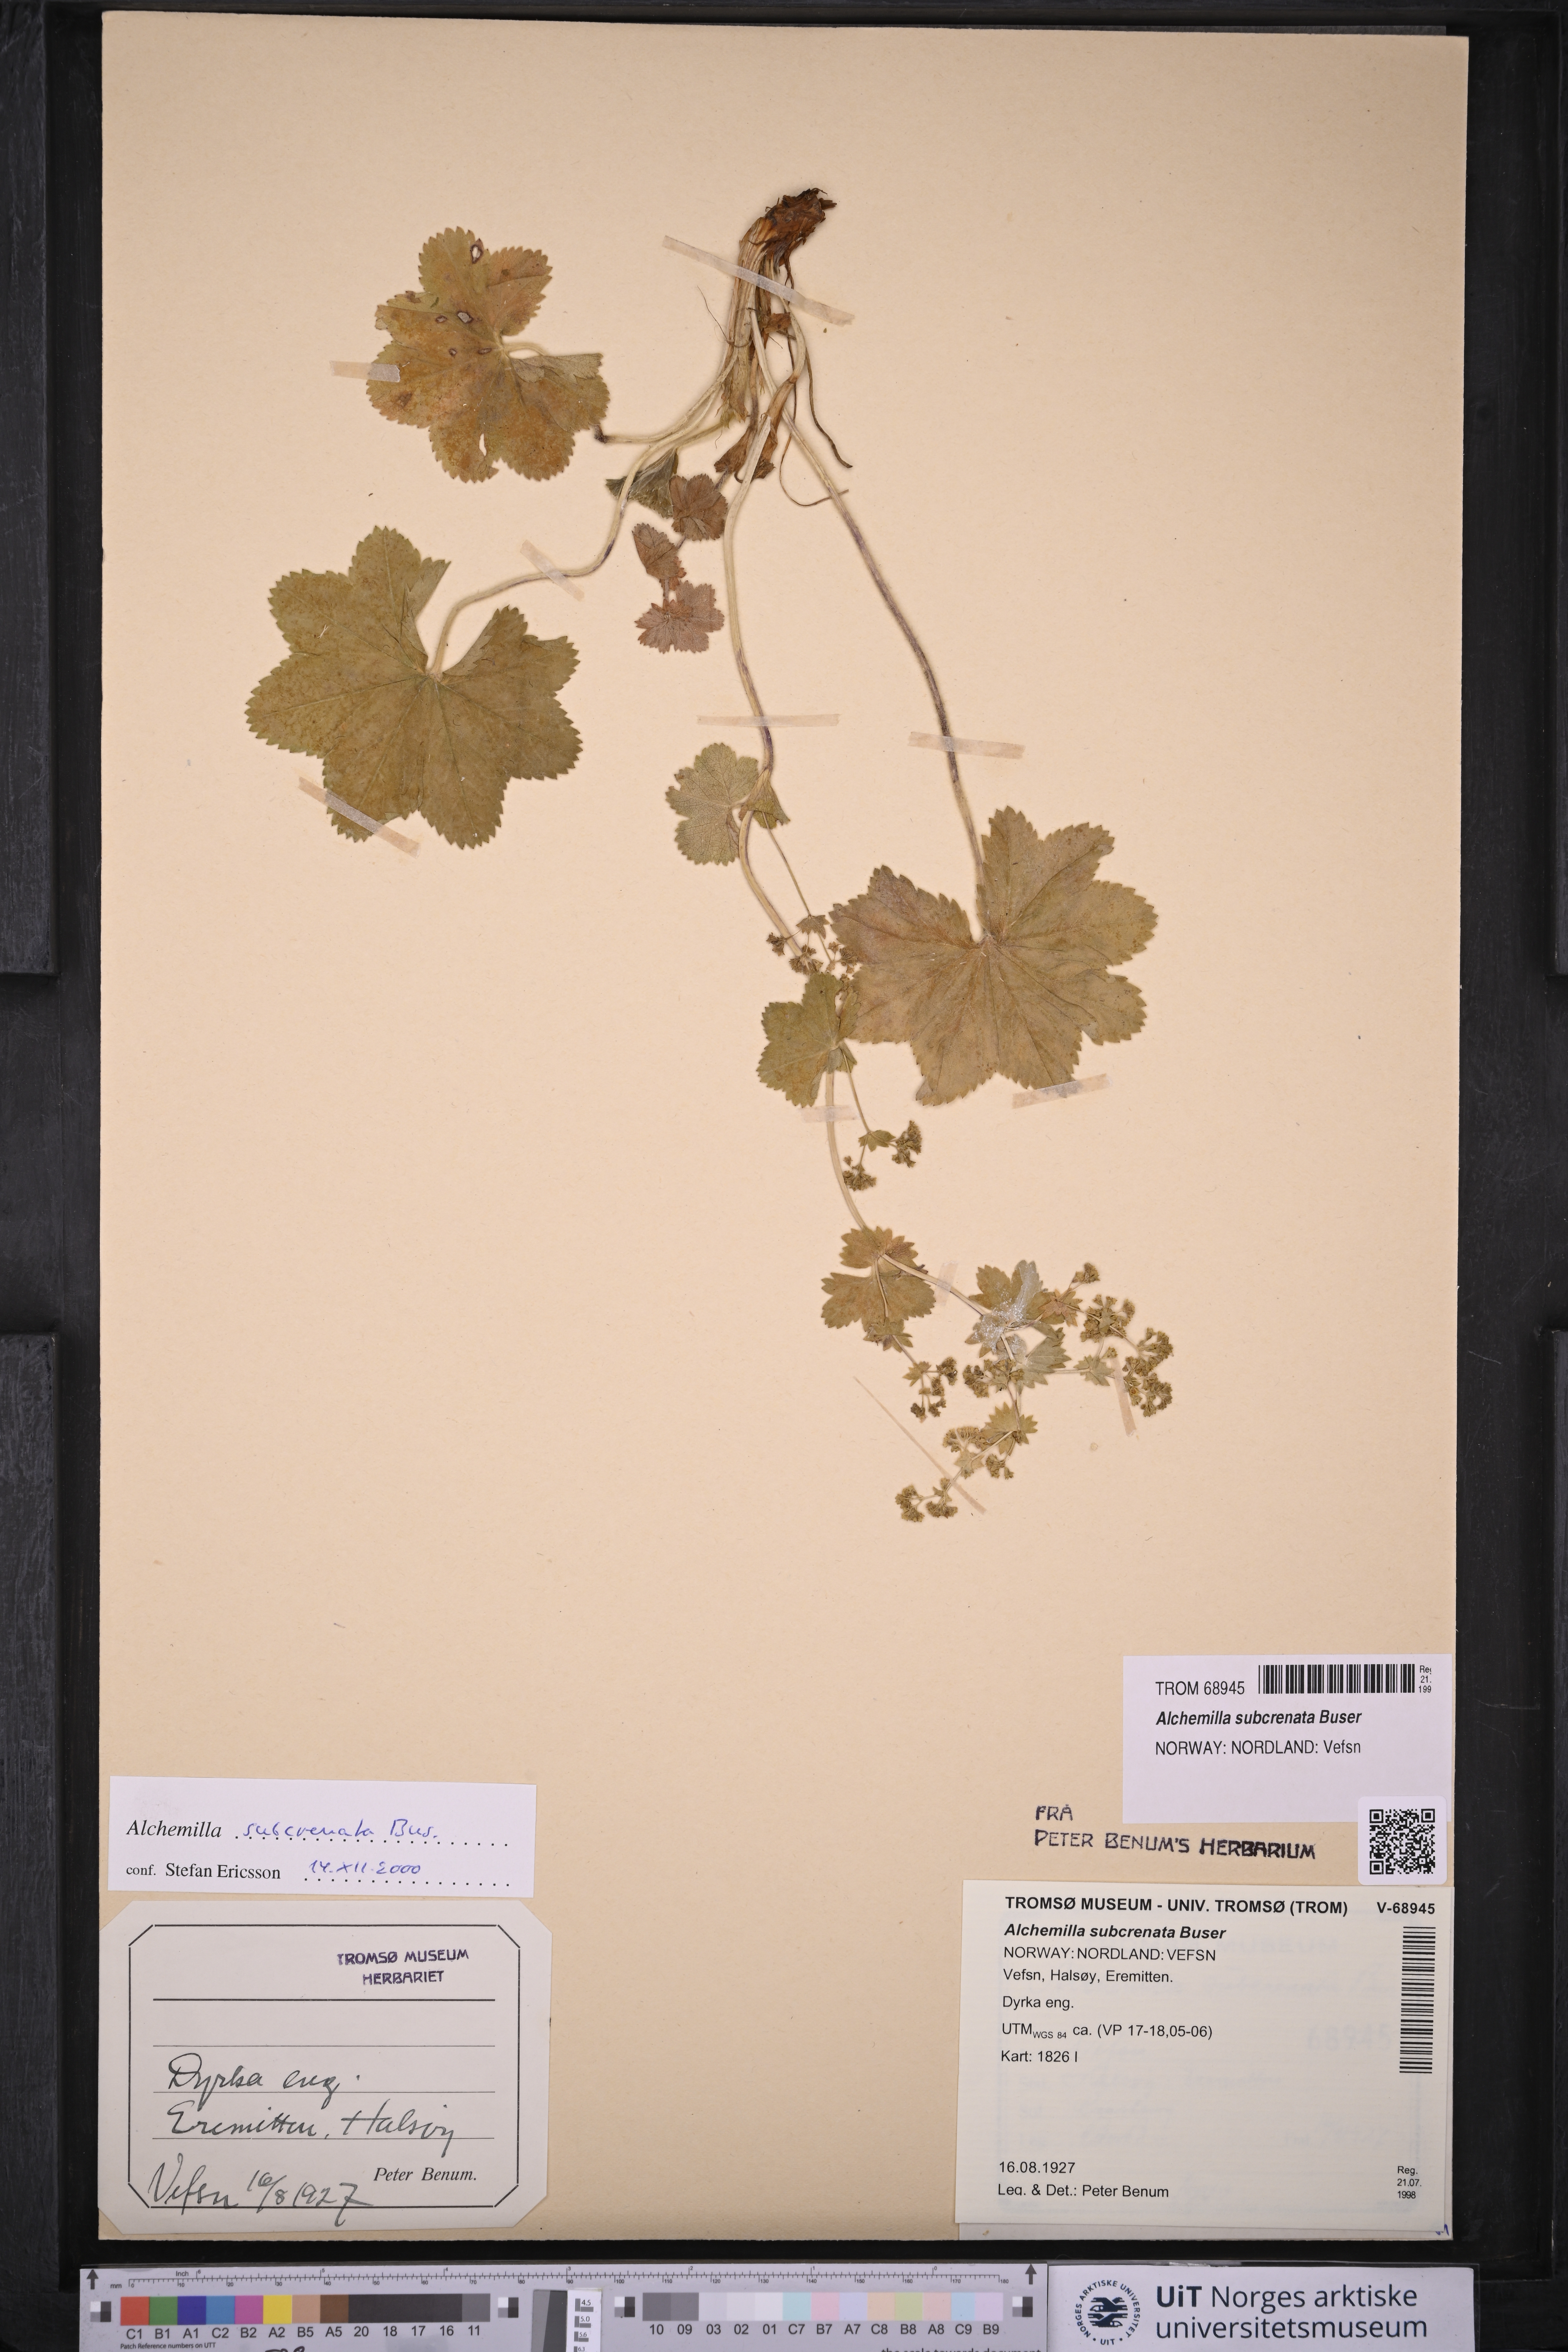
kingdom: Plantae
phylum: Tracheophyta
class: Magnoliopsida
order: Rosales
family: Rosaceae
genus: Alchemilla
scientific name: Alchemilla subcrenata
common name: Broadtooth lady's mantle
